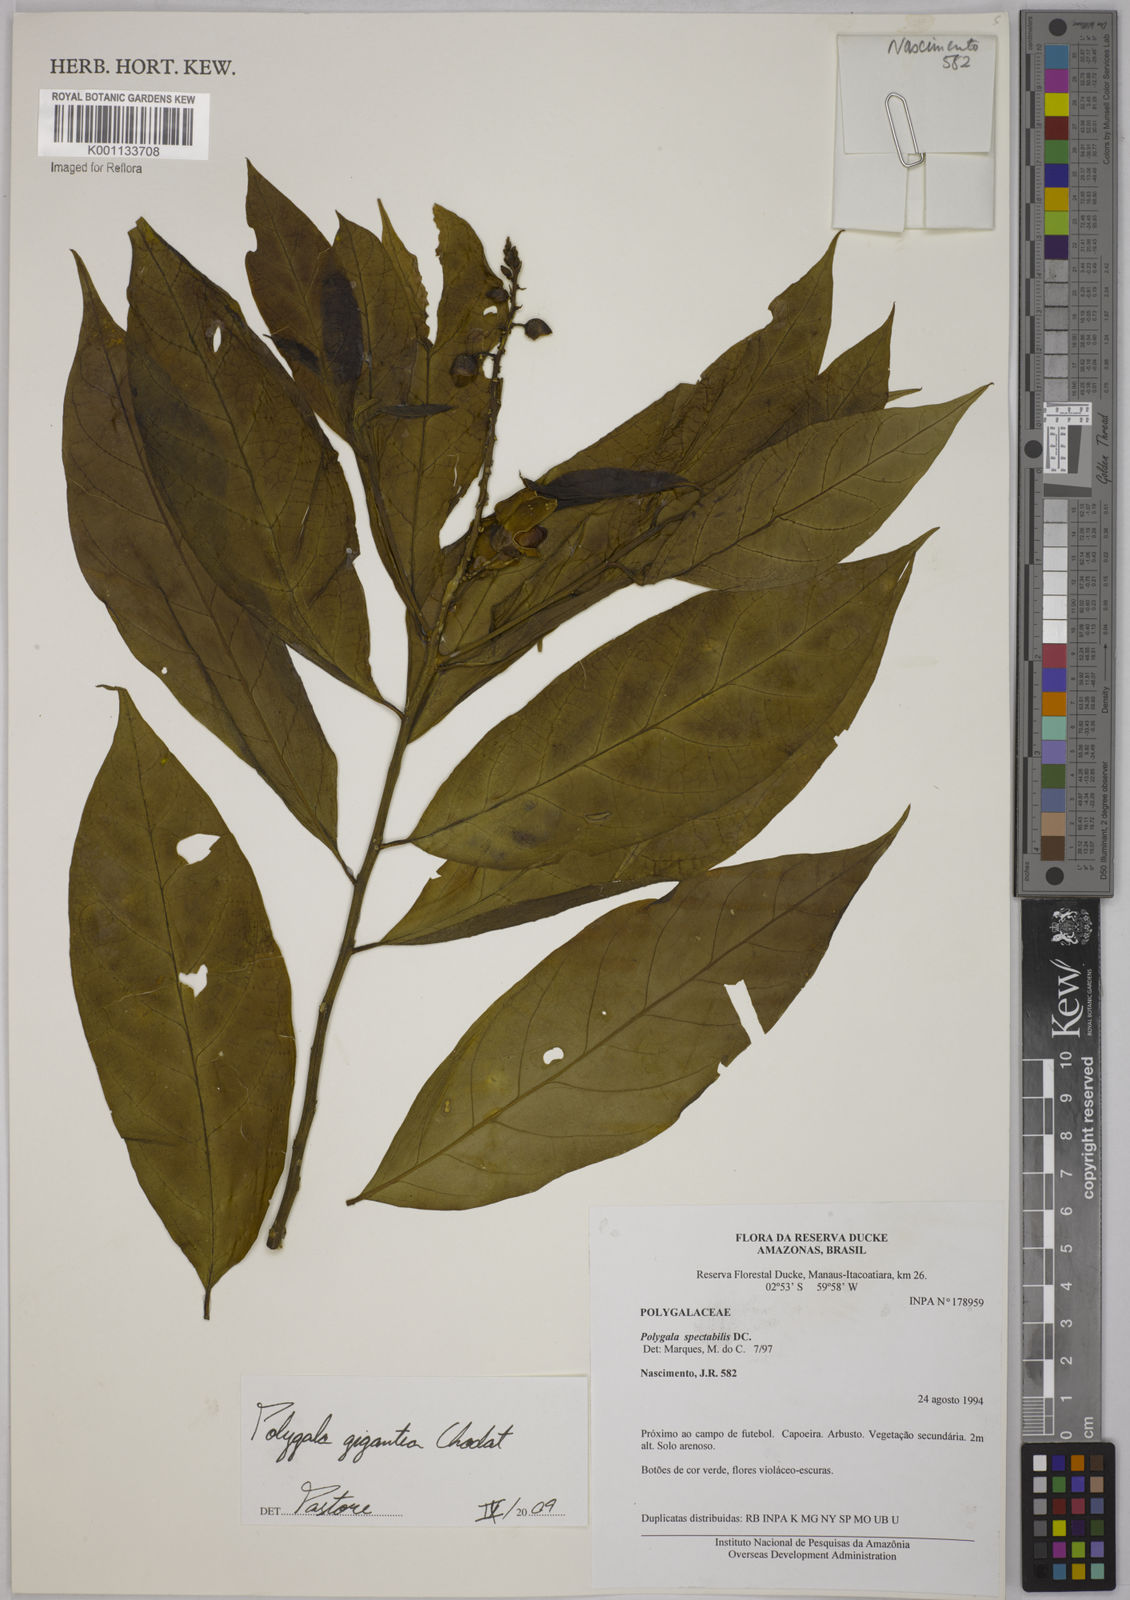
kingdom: Plantae
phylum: Tracheophyta
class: Magnoliopsida
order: Fabales
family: Polygalaceae
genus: Caamembeca
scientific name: Caamembeca gigantea
